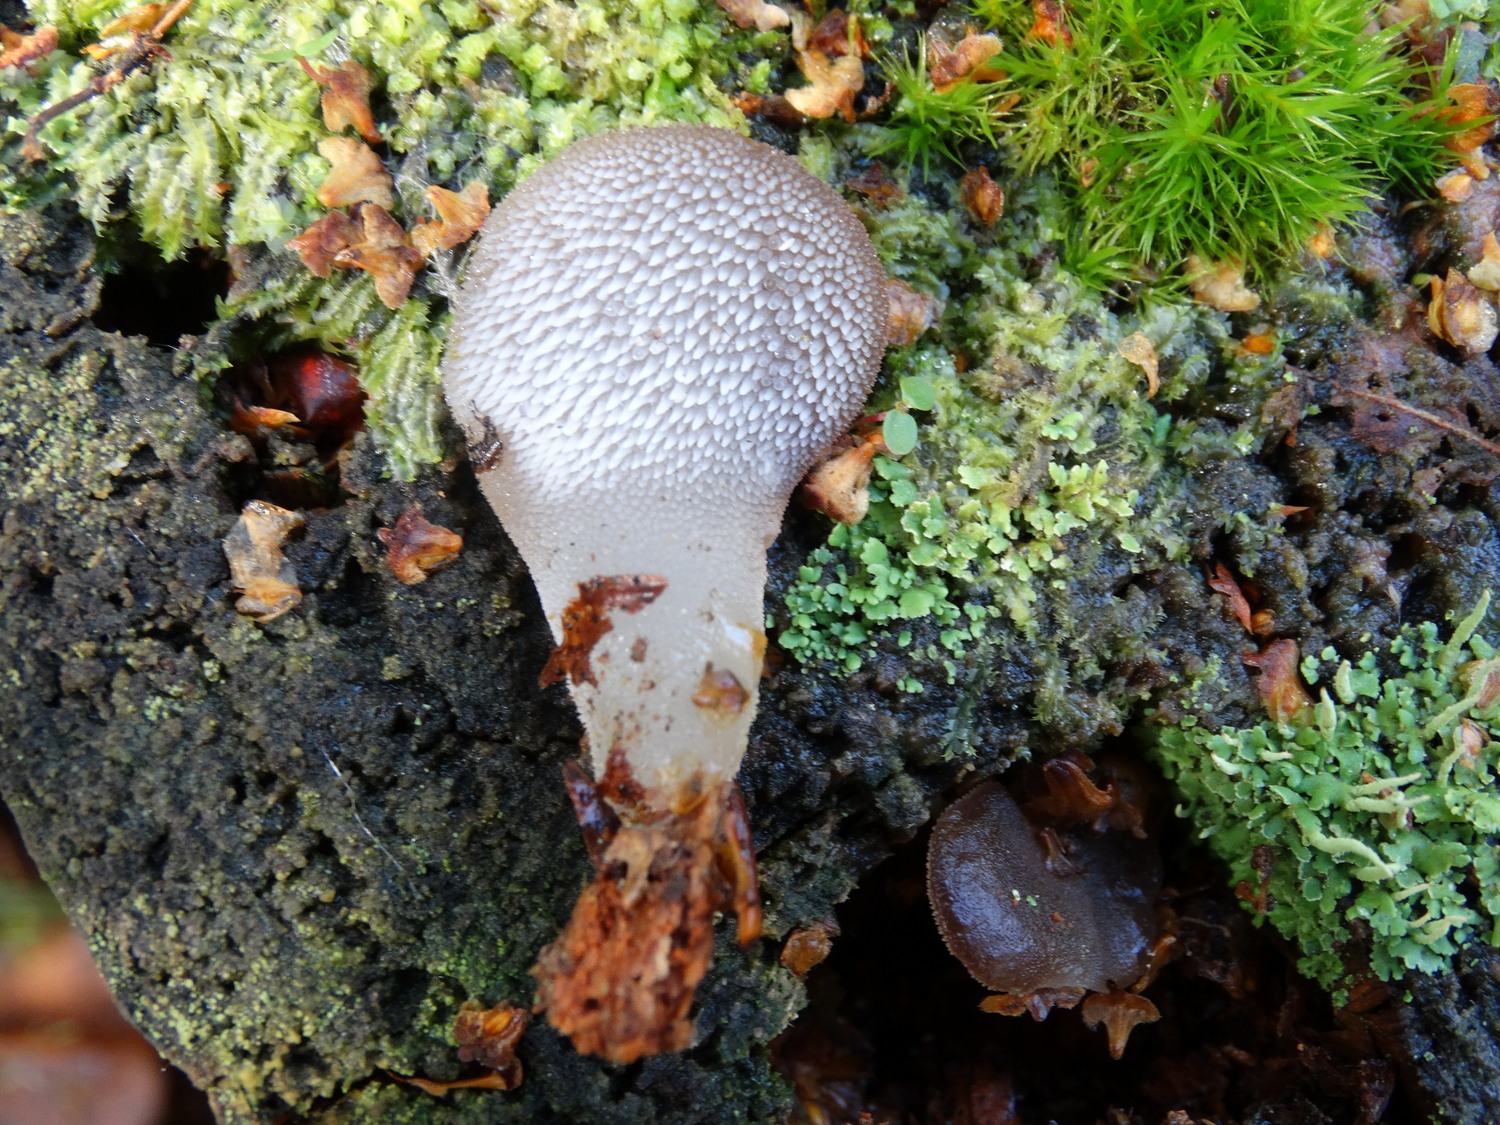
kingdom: Fungi
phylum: Basidiomycota
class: Agaricomycetes
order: Auriculariales
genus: Pseudohydnum
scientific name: Pseudohydnum gelatinosum
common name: bævretand
